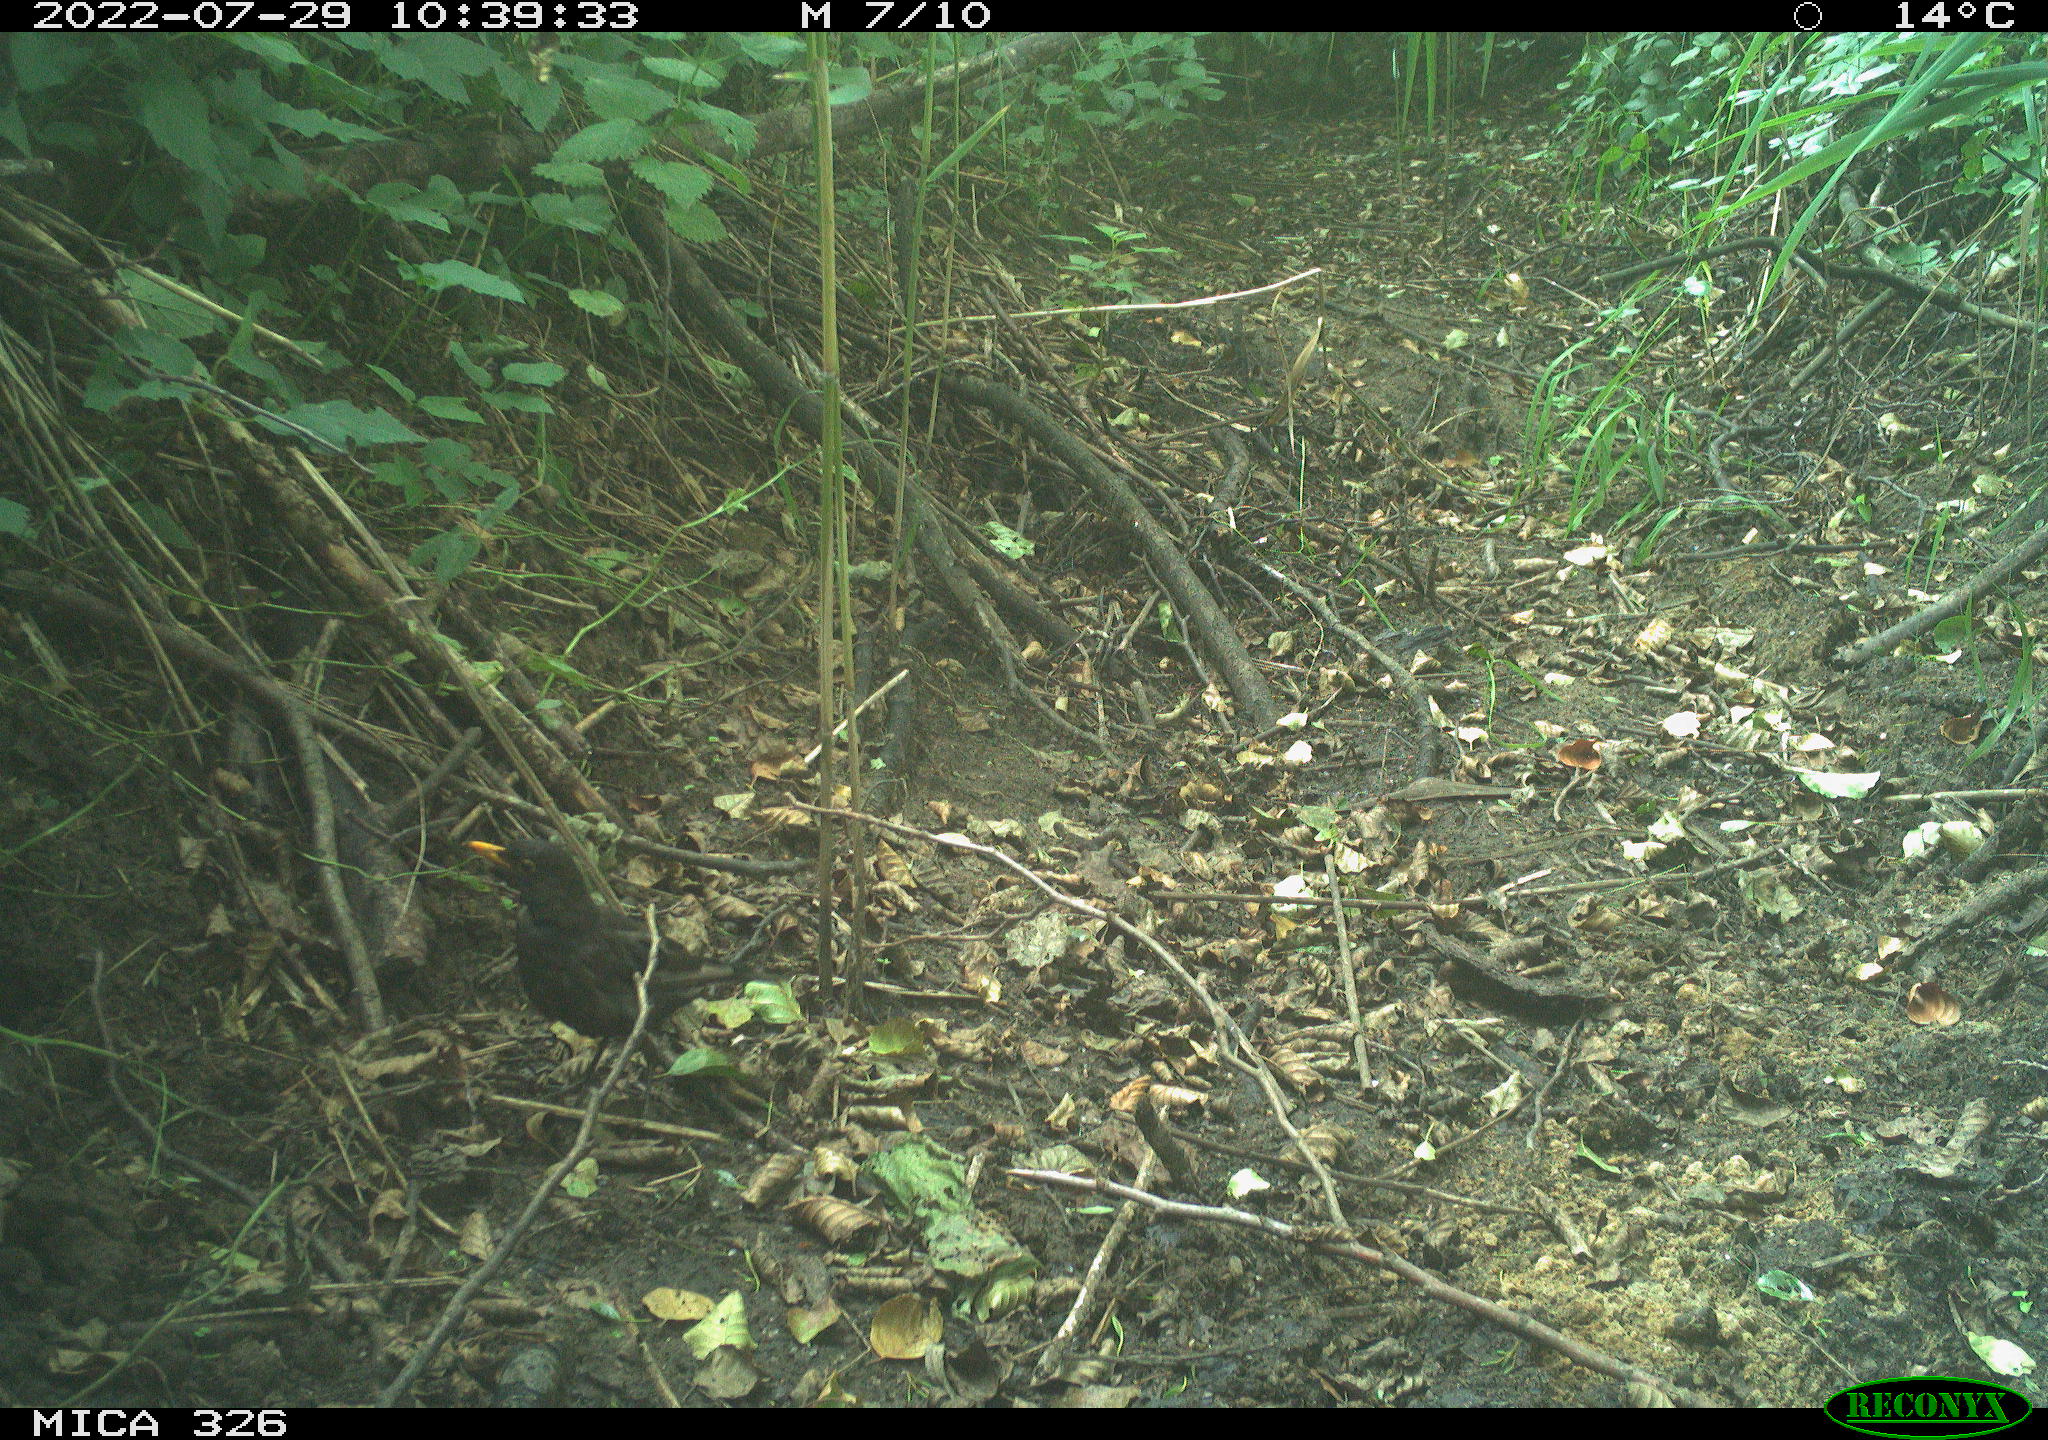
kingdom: Animalia
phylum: Chordata
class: Aves
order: Passeriformes
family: Turdidae
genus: Turdus
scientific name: Turdus merula
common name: Common blackbird
